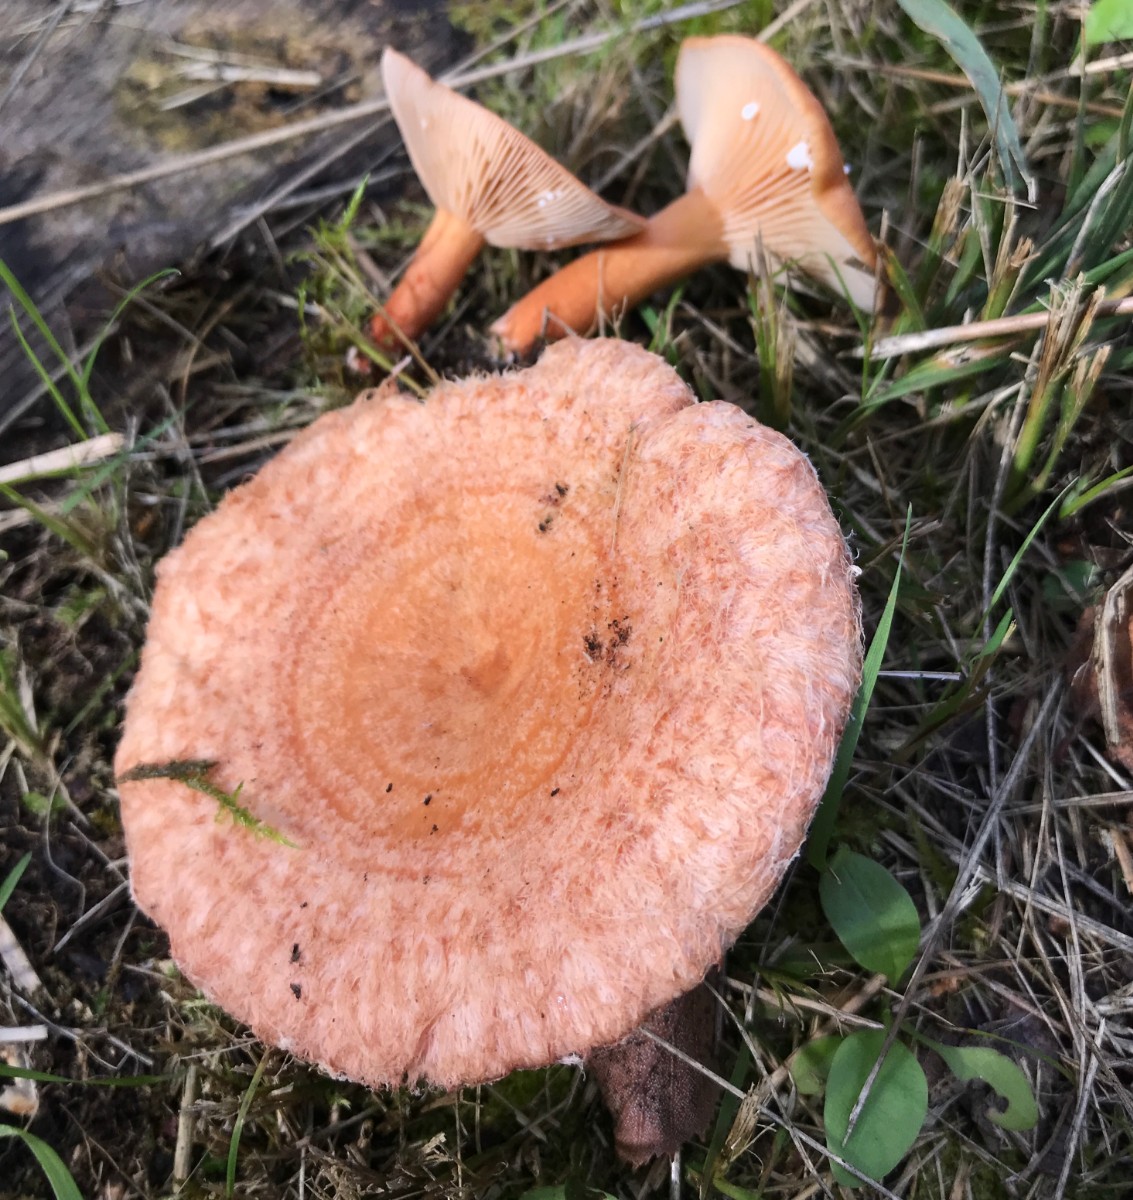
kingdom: Fungi
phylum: Basidiomycota
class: Agaricomycetes
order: Russulales
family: Russulaceae
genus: Lactarius
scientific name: Lactarius torminosus
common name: skægget mælkehat
